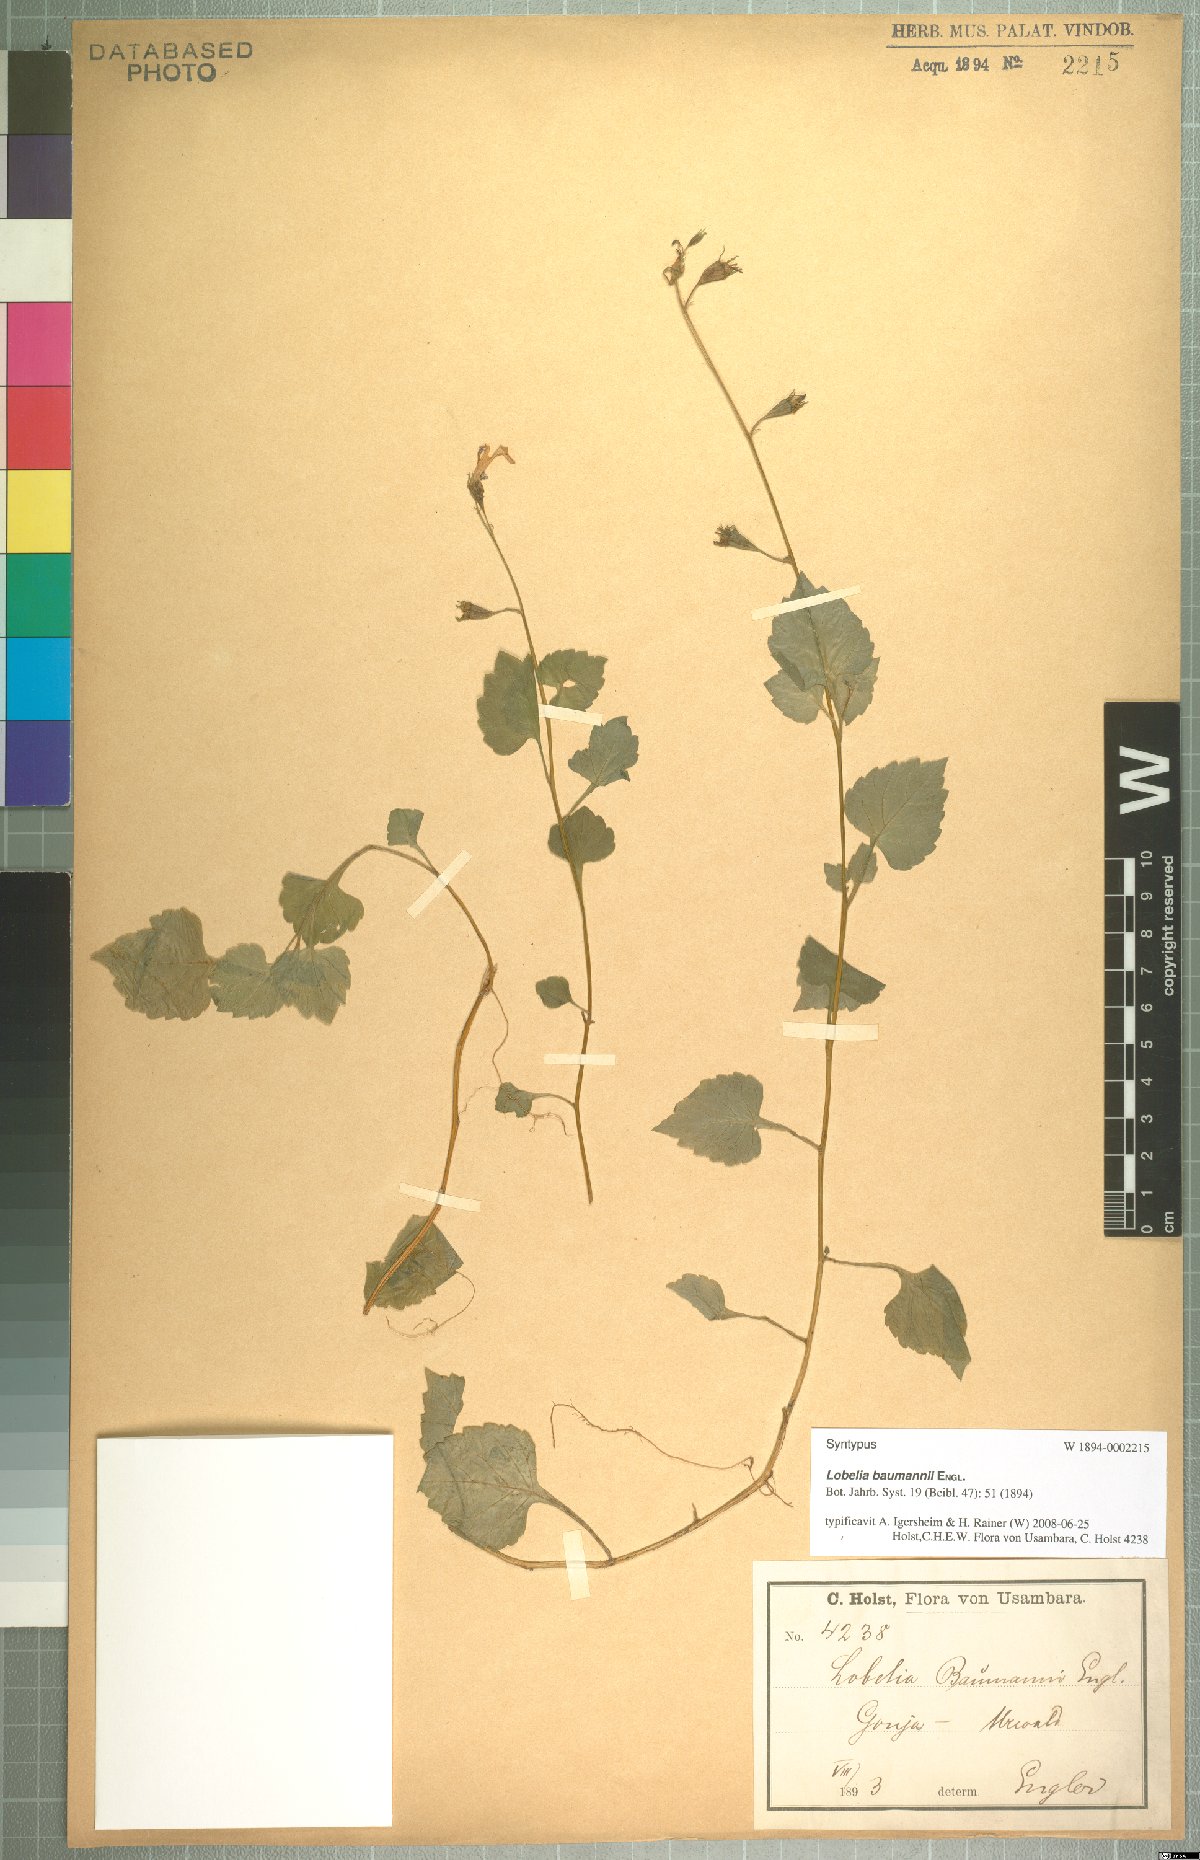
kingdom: Plantae
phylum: Tracheophyta
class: Magnoliopsida
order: Asterales
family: Campanulaceae
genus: Lobelia
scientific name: Lobelia baumannii
